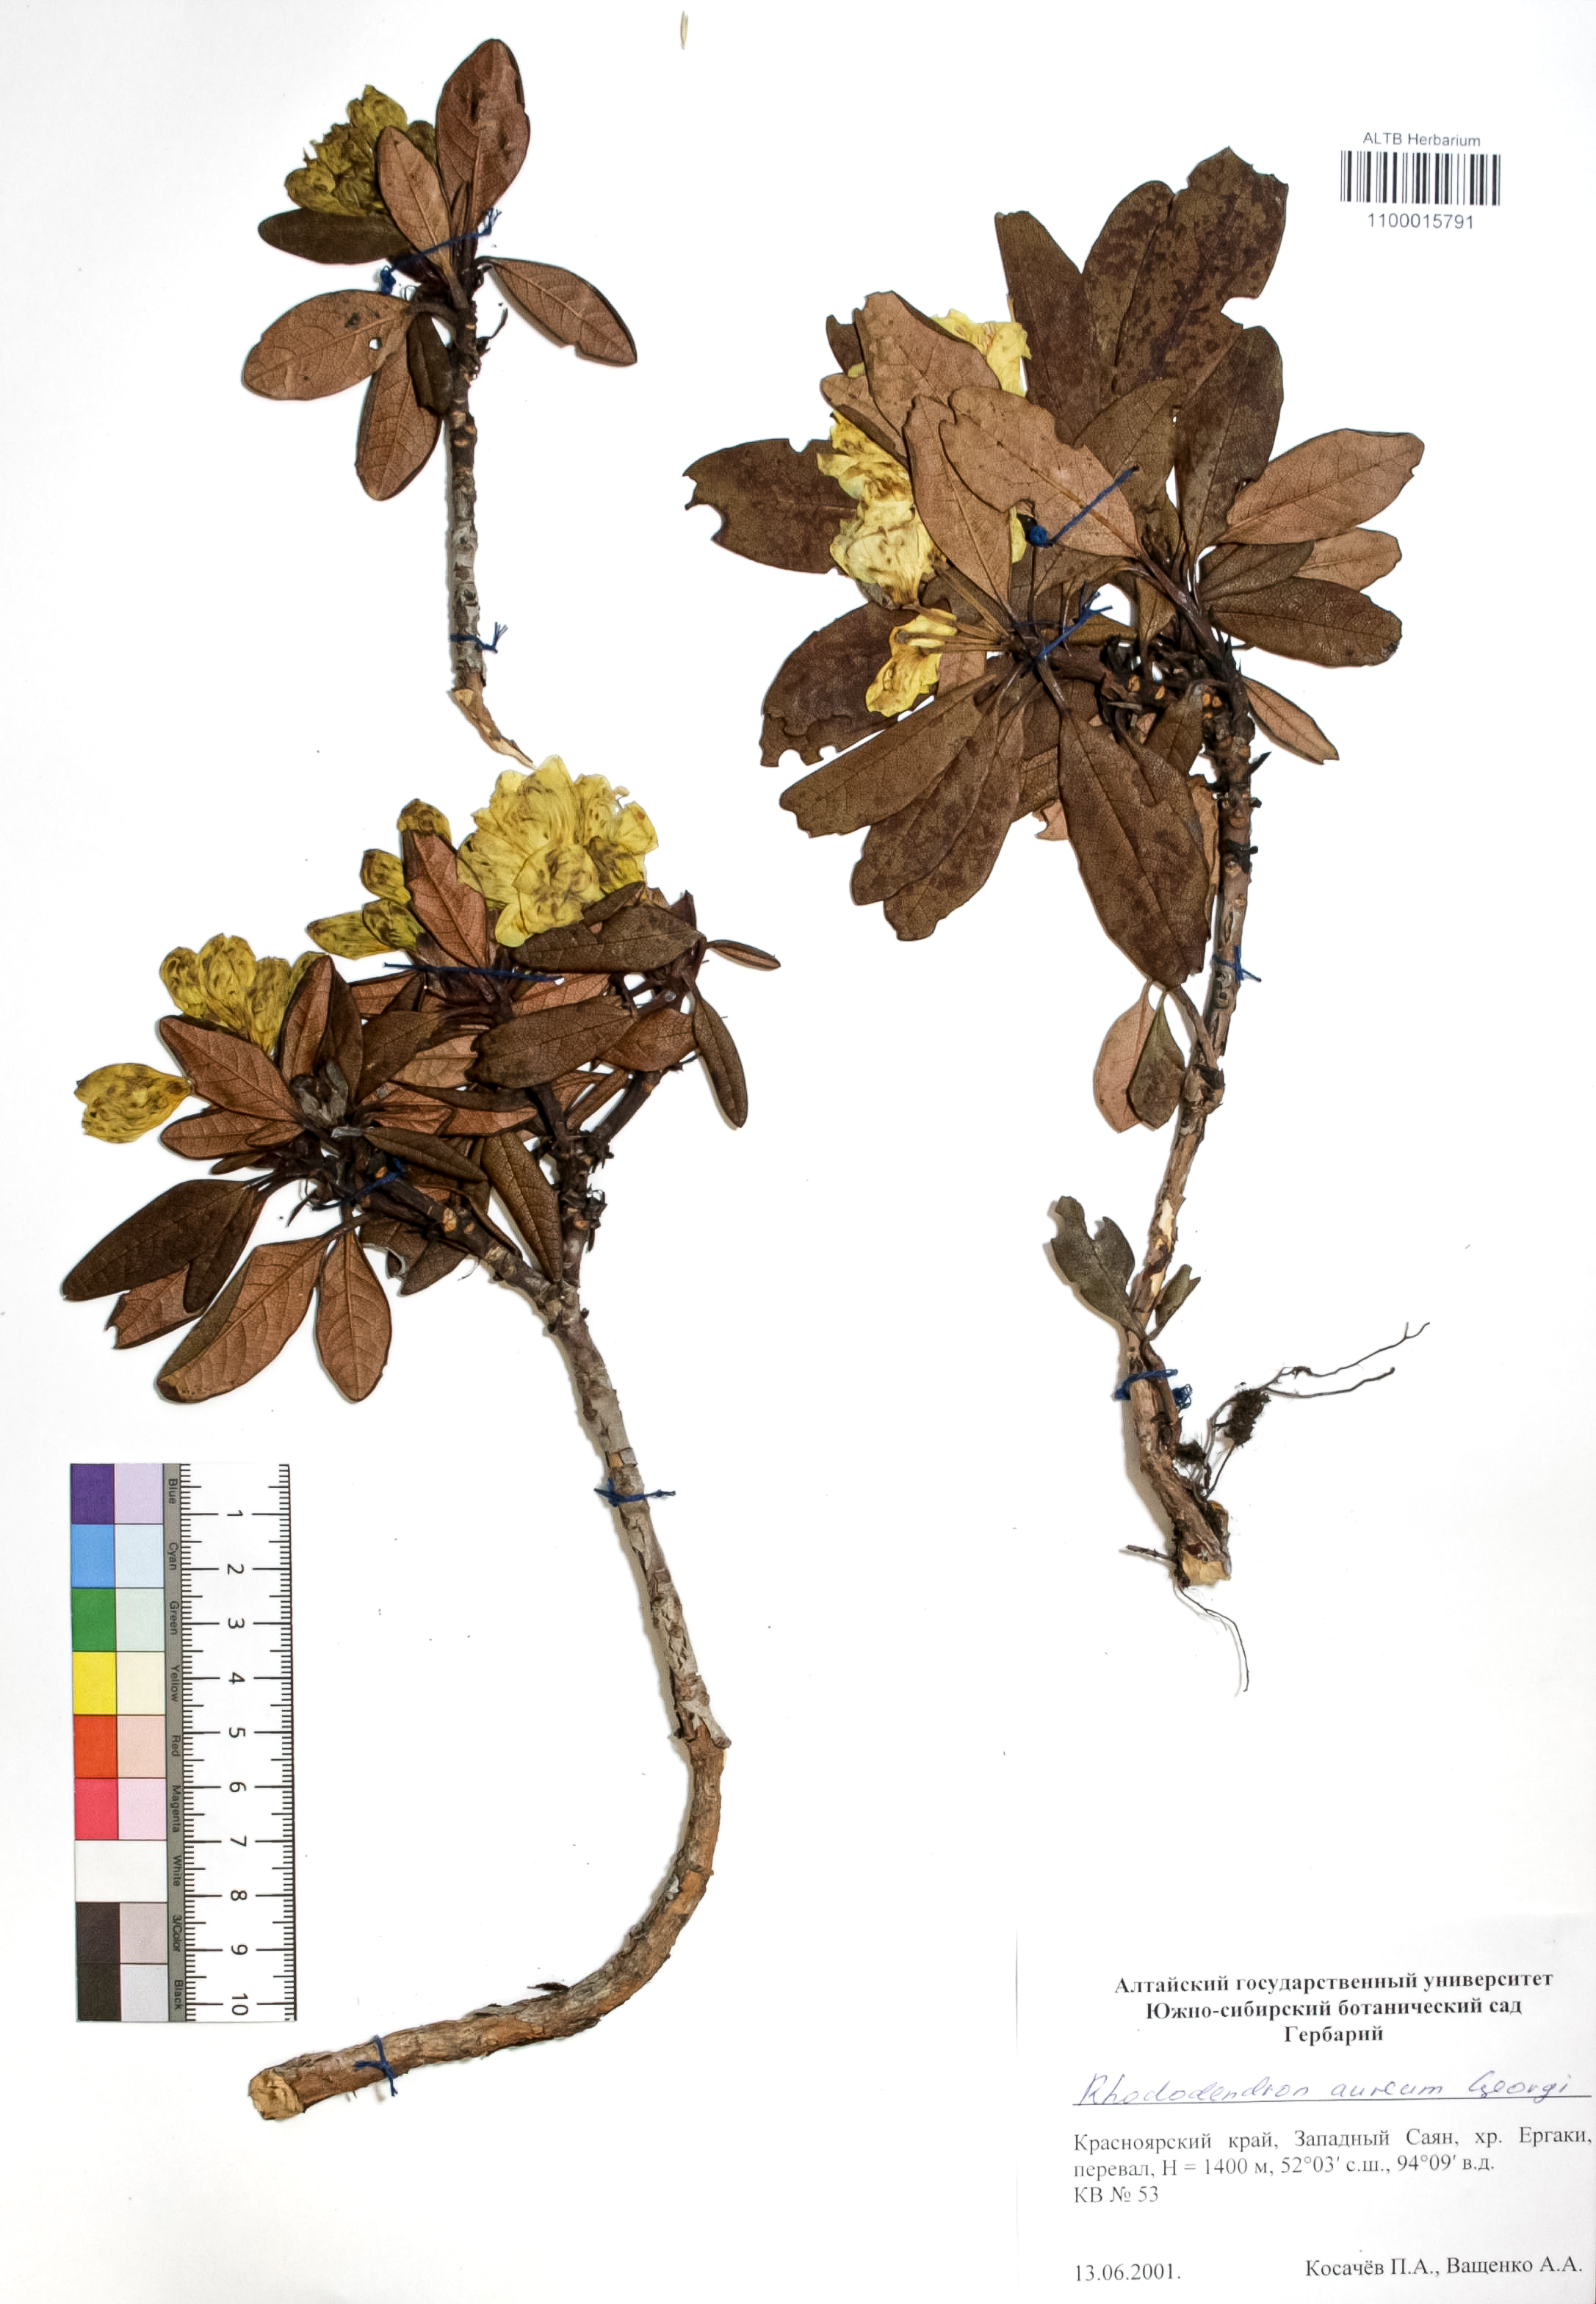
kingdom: Plantae
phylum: Tracheophyta
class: Magnoliopsida
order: Ericales
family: Ericaceae
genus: Rhododendron
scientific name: Rhododendron aureum
